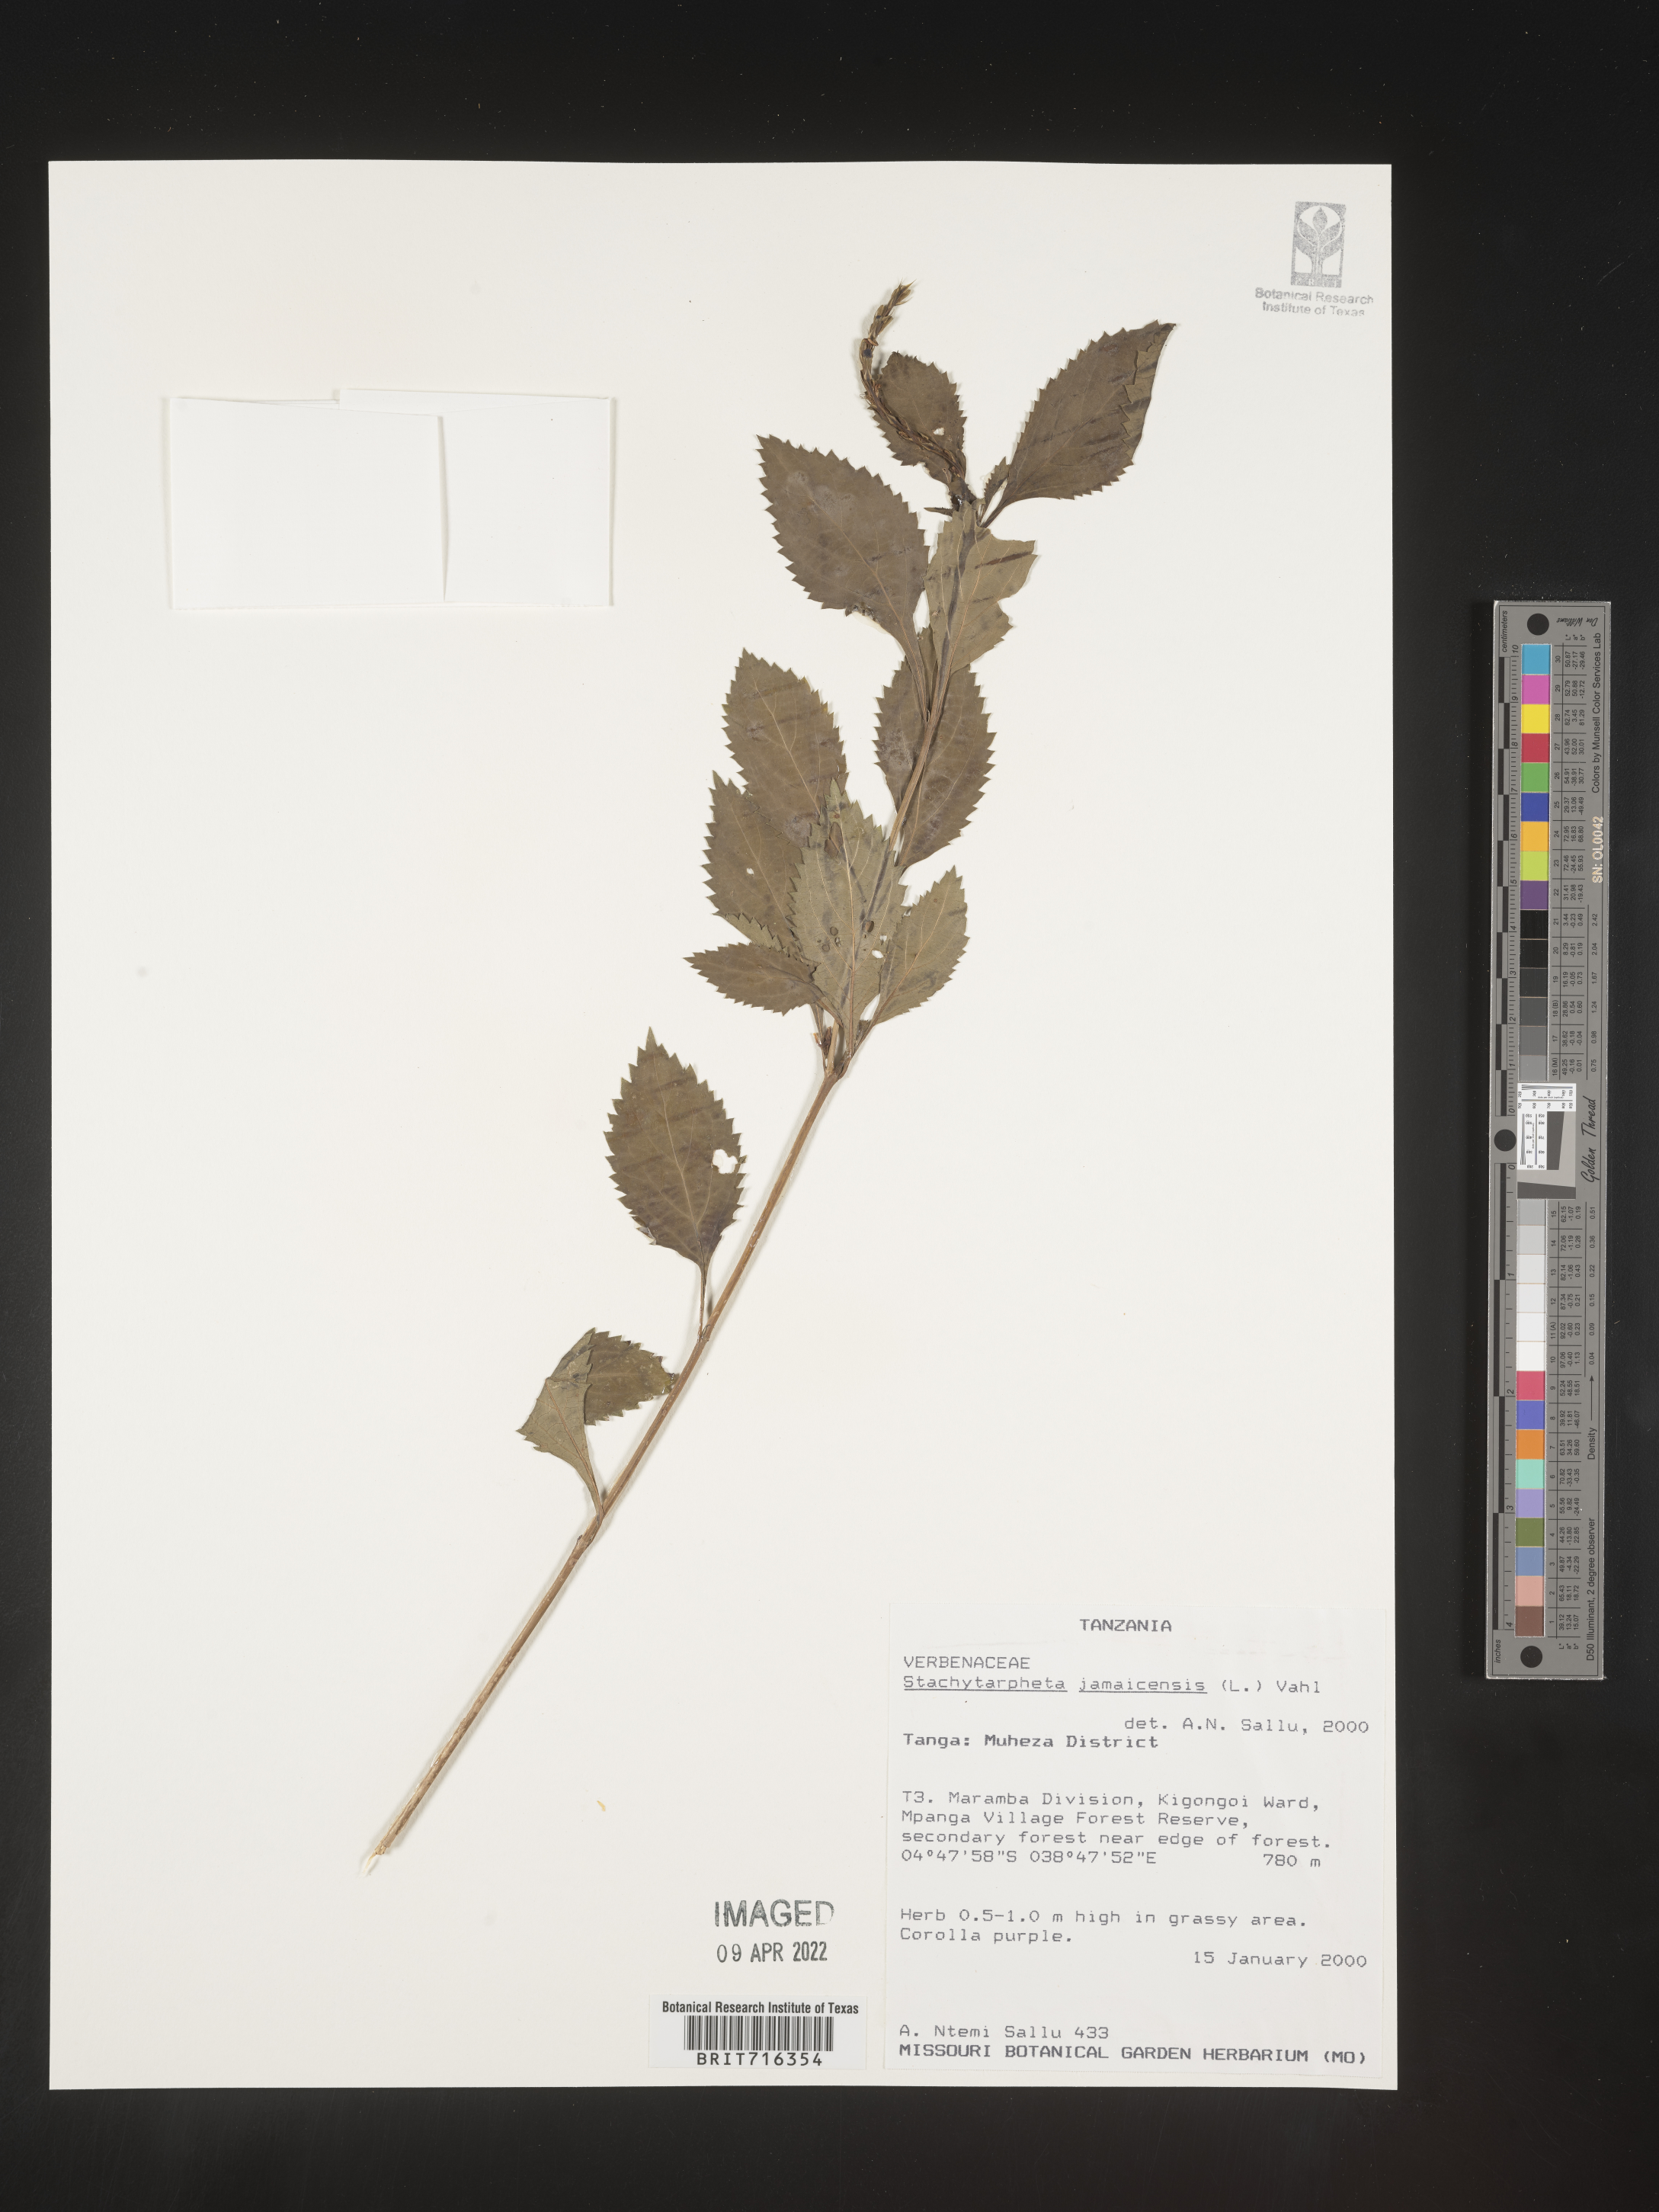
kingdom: Plantae
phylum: Tracheophyta
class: Magnoliopsida
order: Lamiales
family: Verbenaceae
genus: Stachytarpheta
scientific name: Stachytarpheta
